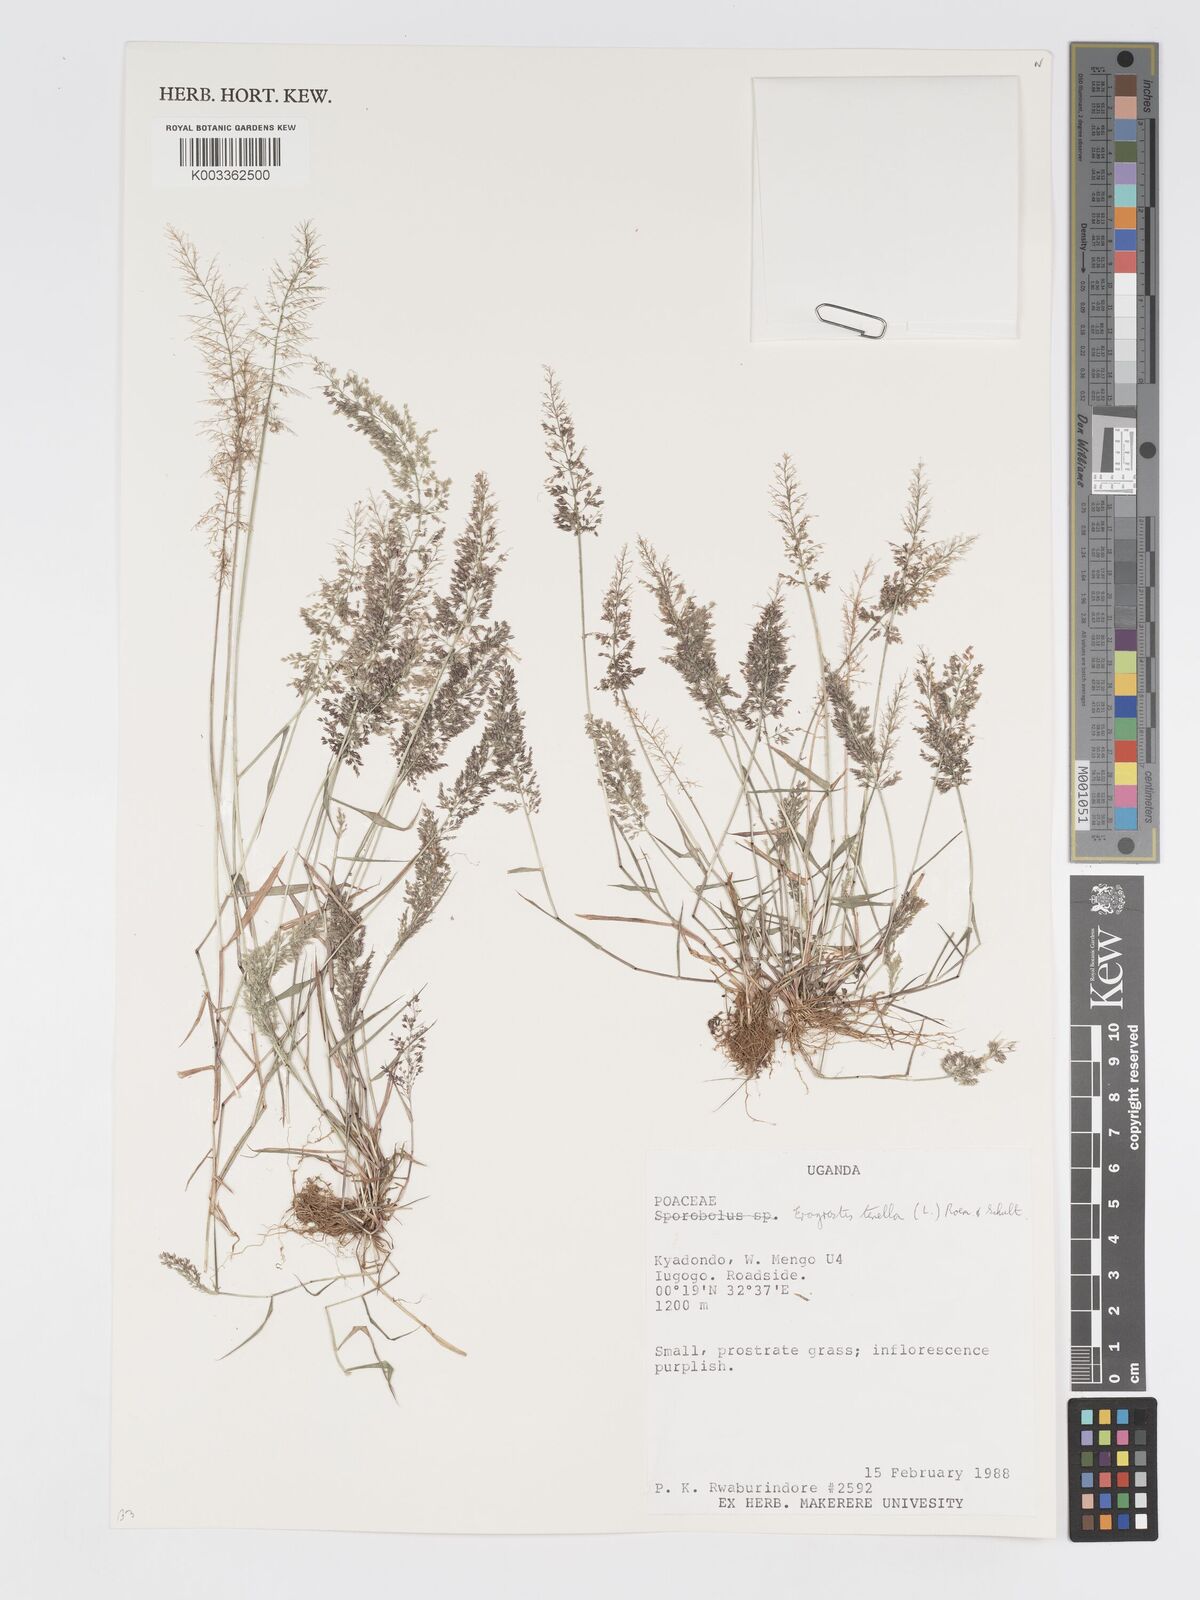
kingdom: Plantae
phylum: Tracheophyta
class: Liliopsida
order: Poales
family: Poaceae
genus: Eragrostis
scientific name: Eragrostis tenella
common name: Japanese lovegrass
